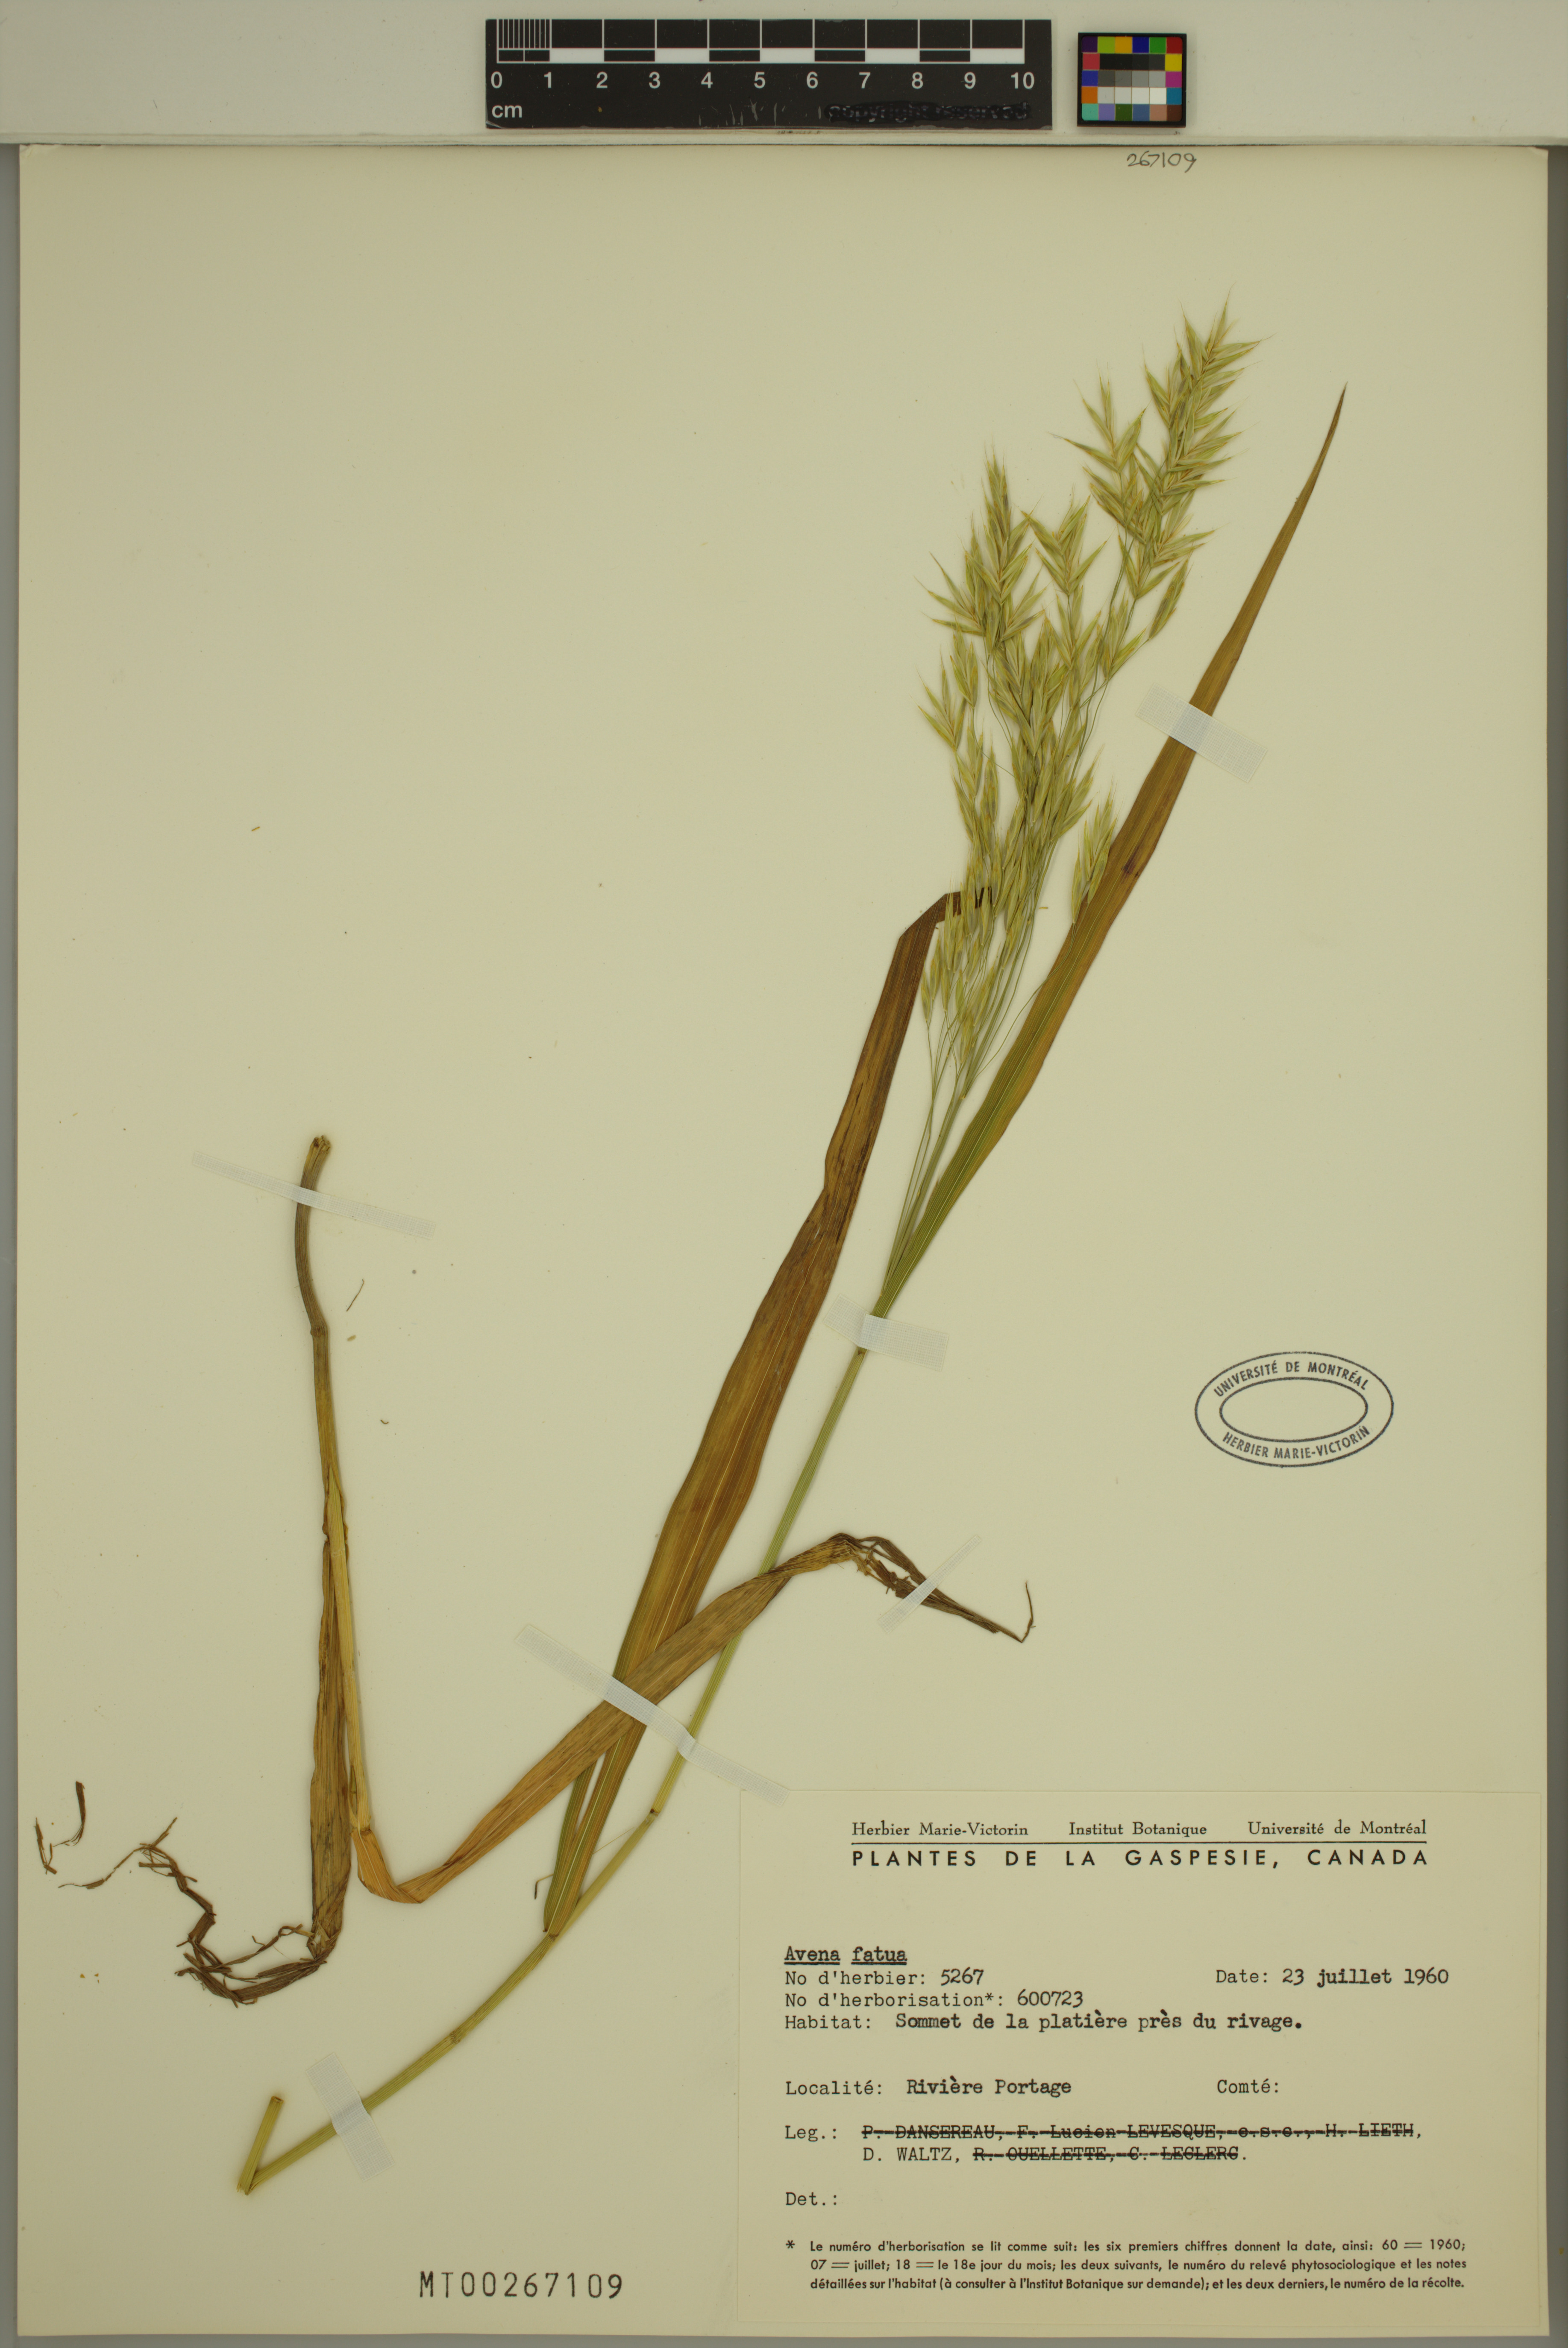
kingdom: Plantae
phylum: Tracheophyta
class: Liliopsida
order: Poales
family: Poaceae
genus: Avena
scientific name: Avena fatua
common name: Wild oat
